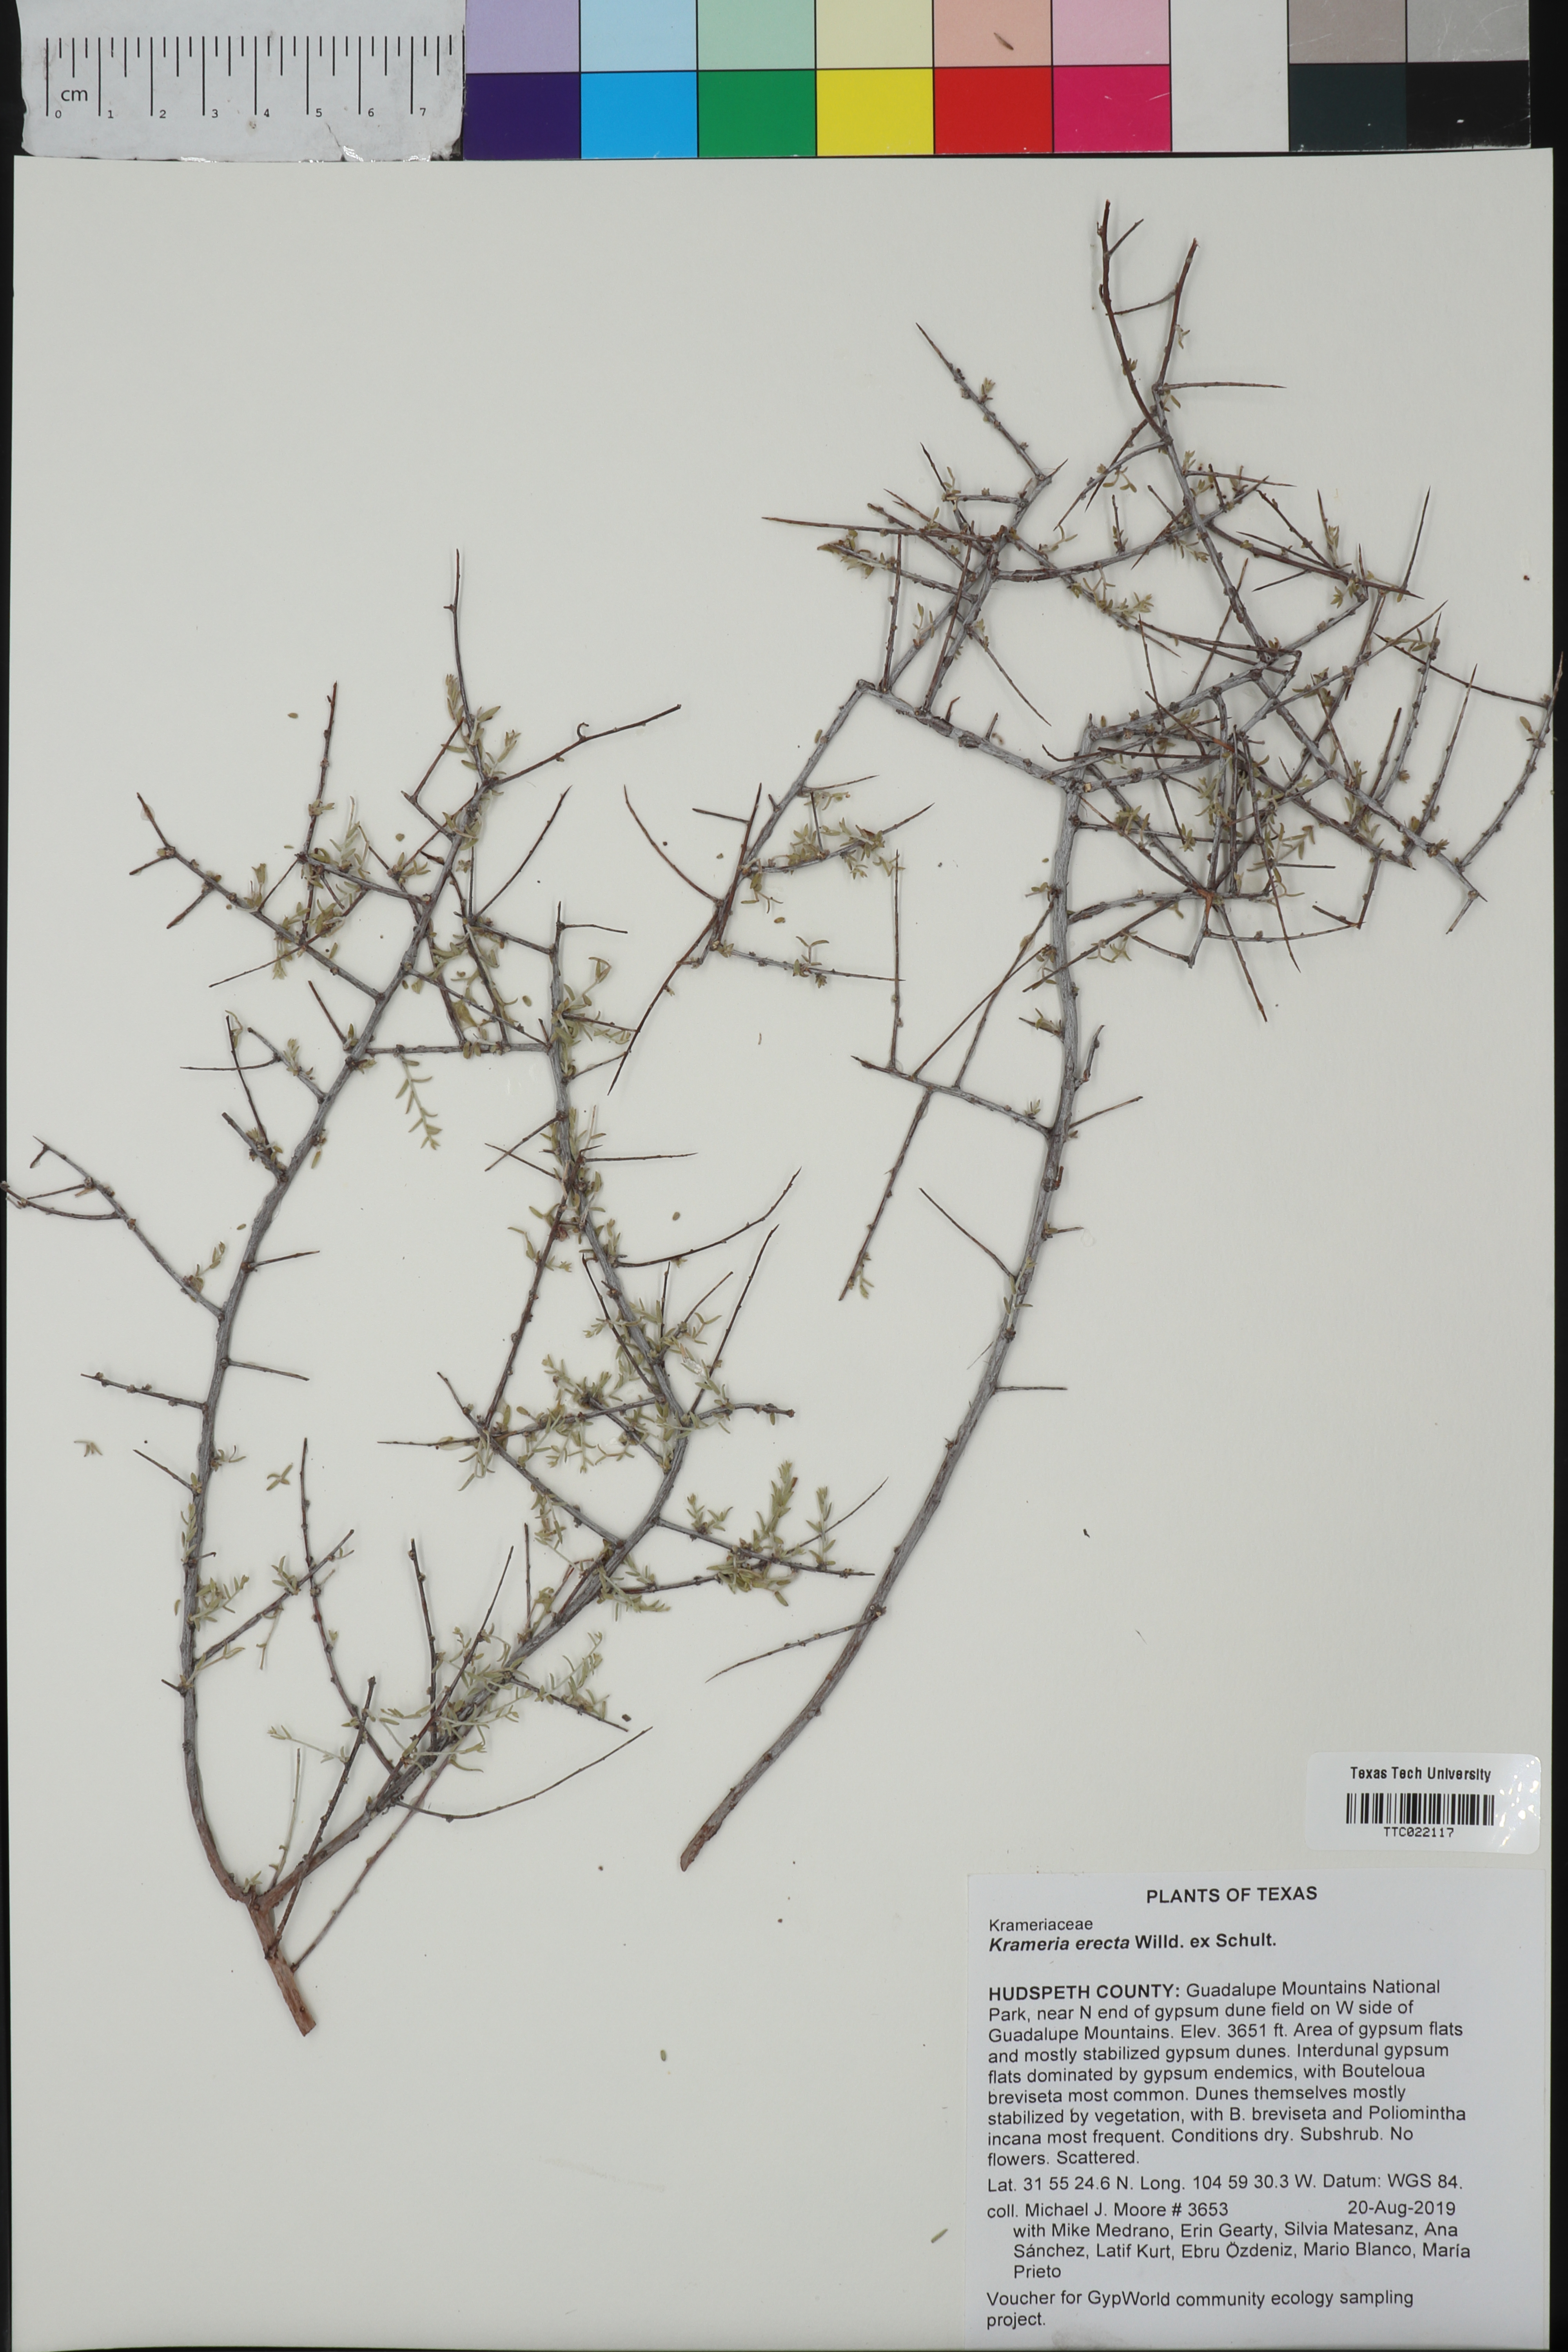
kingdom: Plantae
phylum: Tracheophyta
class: Magnoliopsida
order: Zygophyllales
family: Krameriaceae
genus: Krameria
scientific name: Krameria erecta
